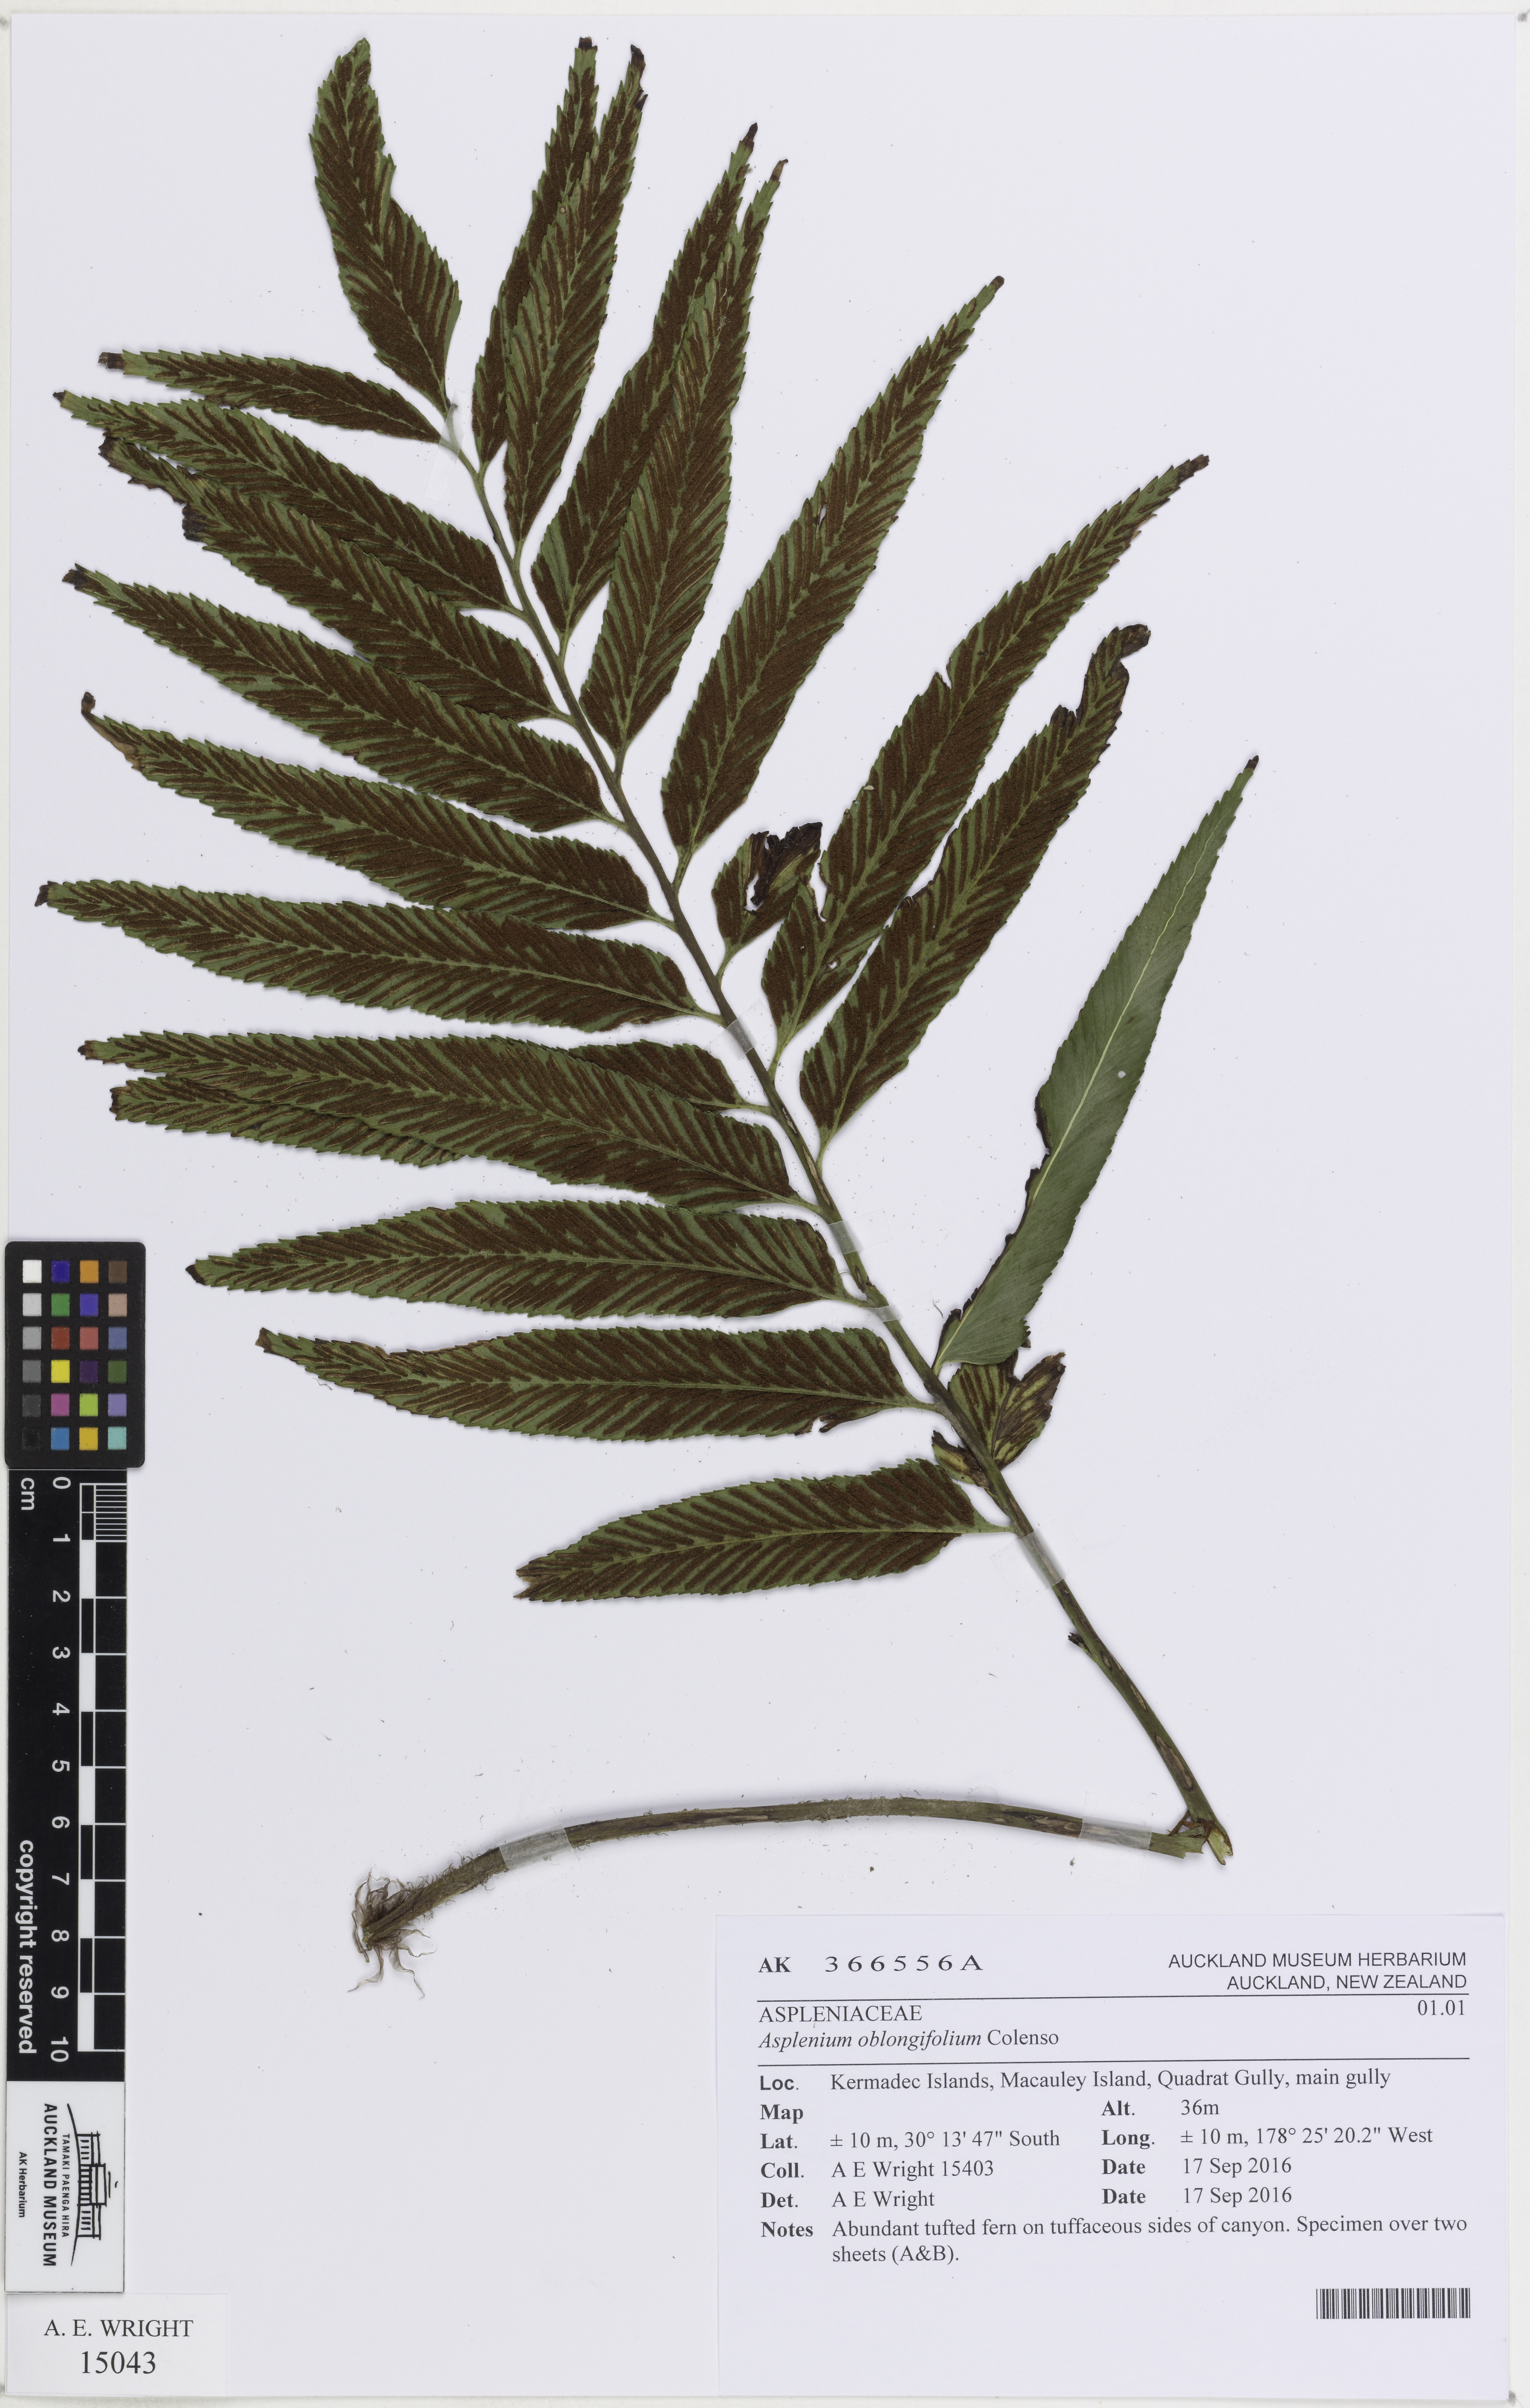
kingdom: Plantae
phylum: Tracheophyta
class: Polypodiopsida
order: Polypodiales
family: Aspleniaceae
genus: Asplenium
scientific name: Asplenium oblongifolium
